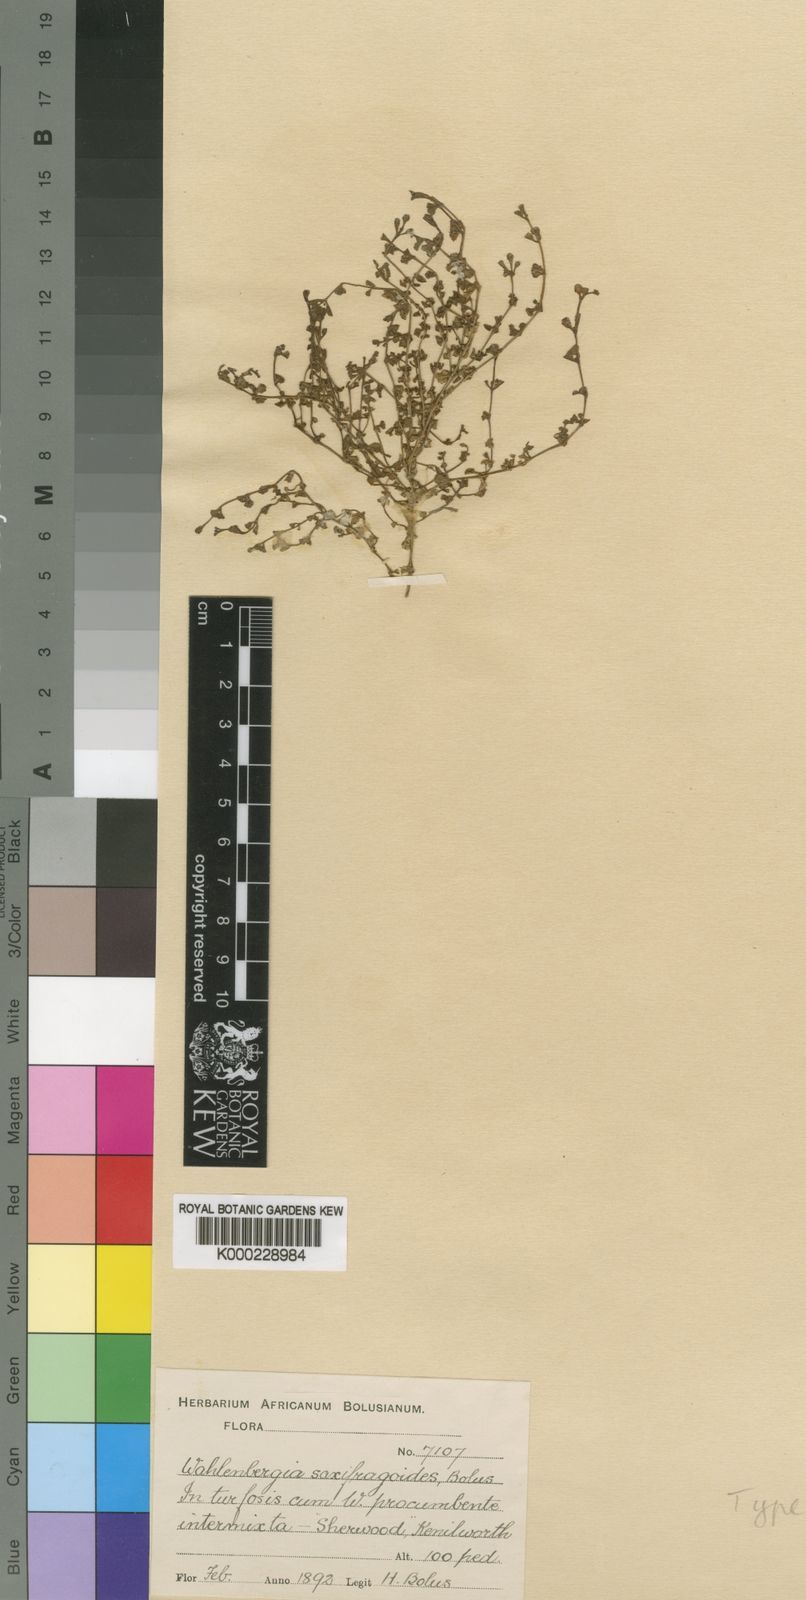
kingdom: Plantae
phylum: Tracheophyta
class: Magnoliopsida
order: Asterales
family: Campanulaceae
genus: Wahlenbergia
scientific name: Wahlenbergia procumbens
